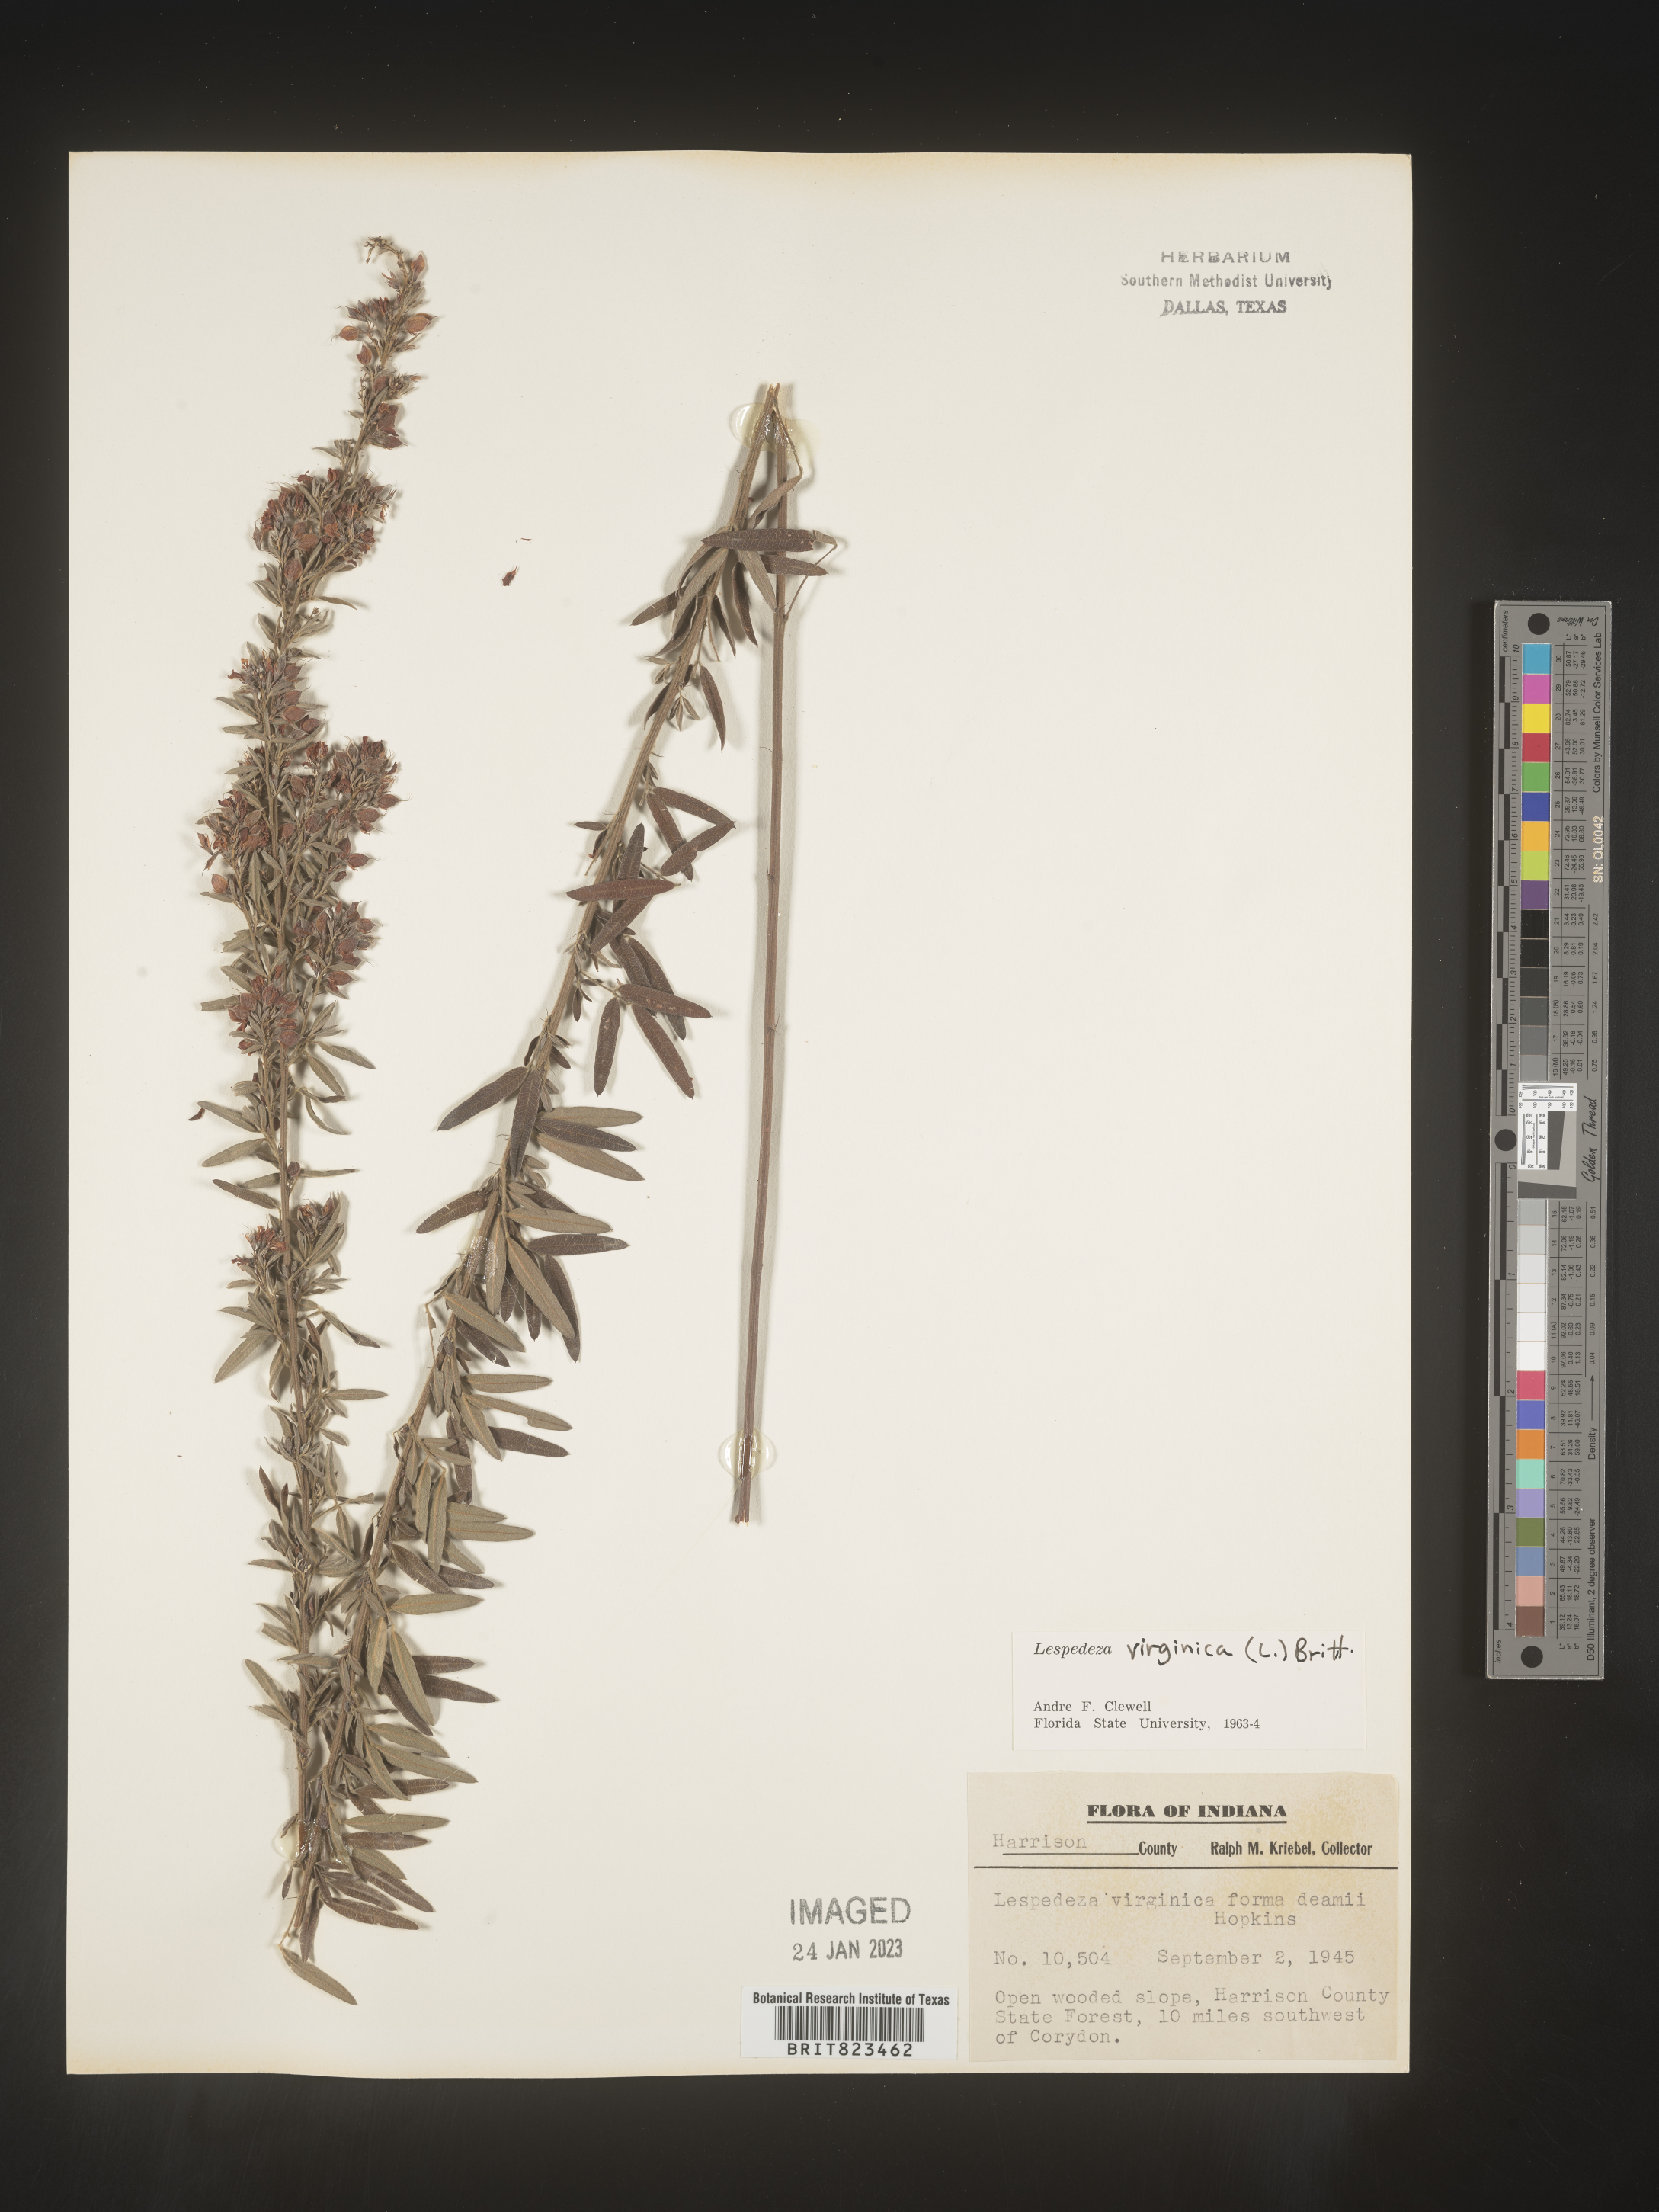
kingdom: Plantae
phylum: Tracheophyta
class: Magnoliopsida
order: Fabales
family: Fabaceae
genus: Lespedeza
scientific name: Lespedeza virginica
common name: Slender bush-clover
